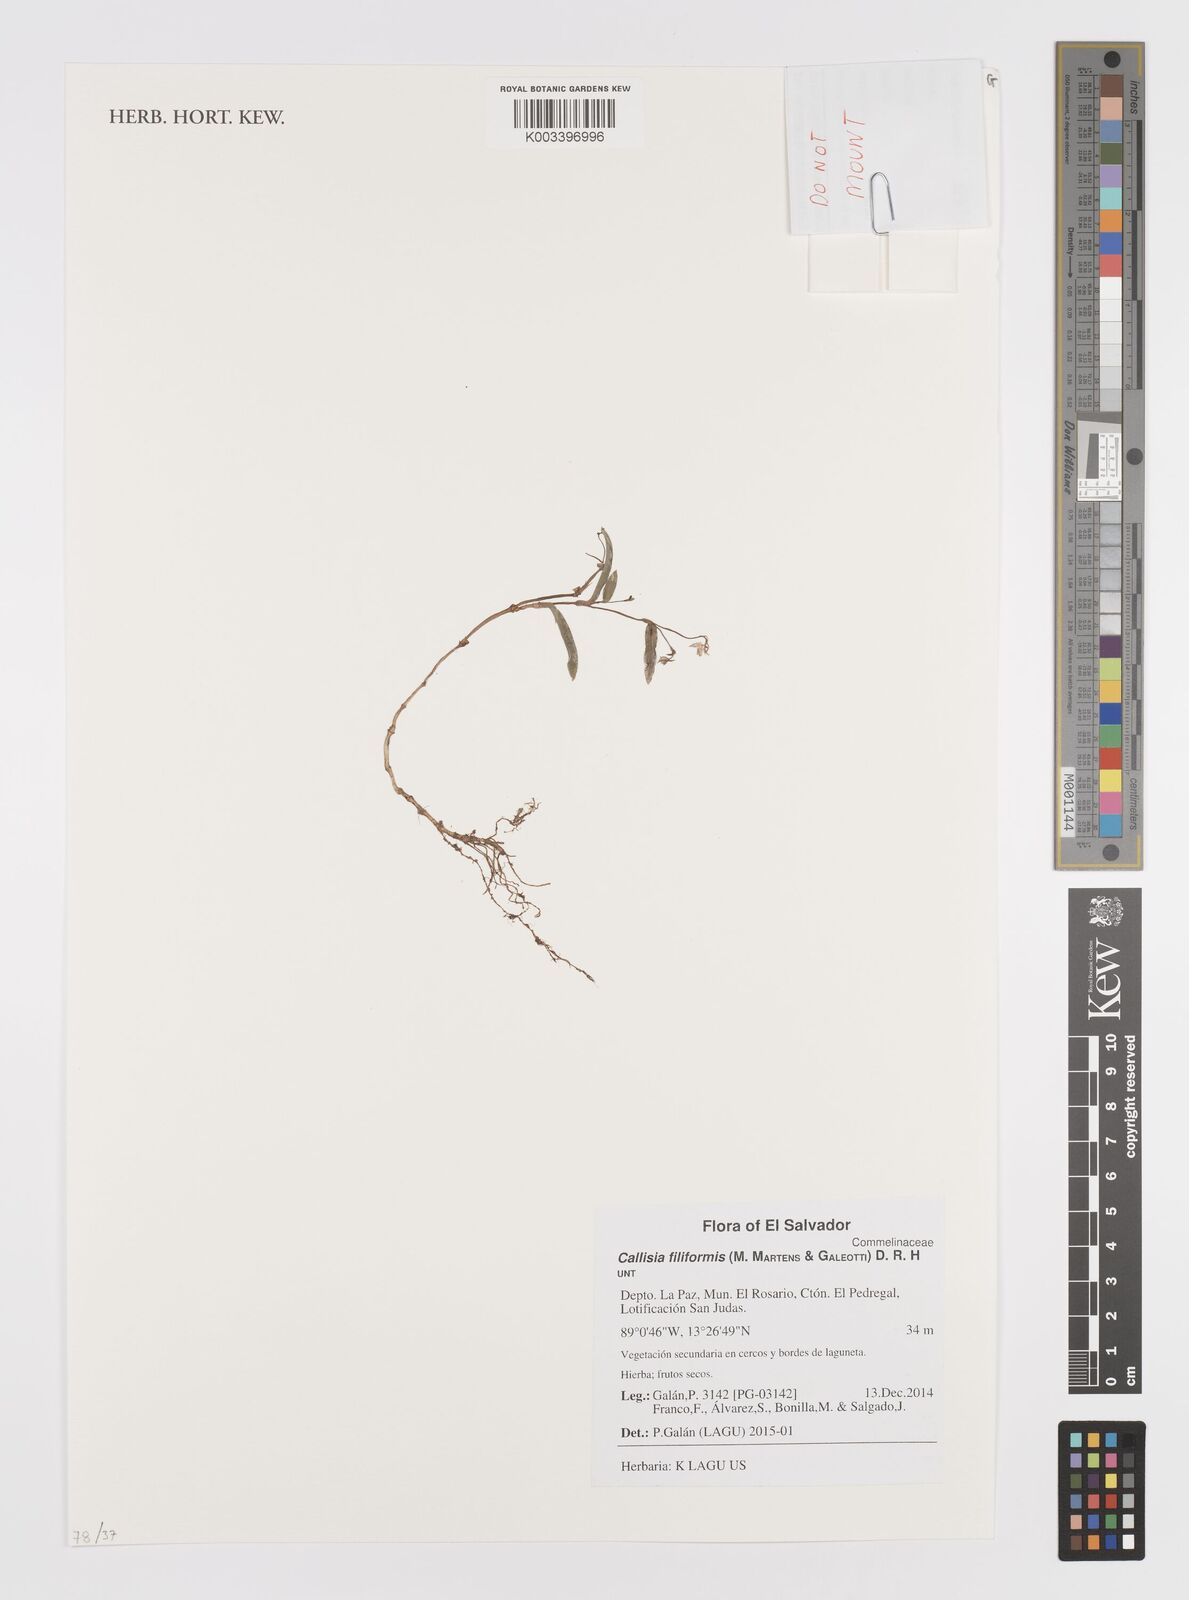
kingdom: Plantae
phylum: Tracheophyta
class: Liliopsida
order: Commelinales
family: Commelinaceae
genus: Callisia
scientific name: Callisia filiformis
